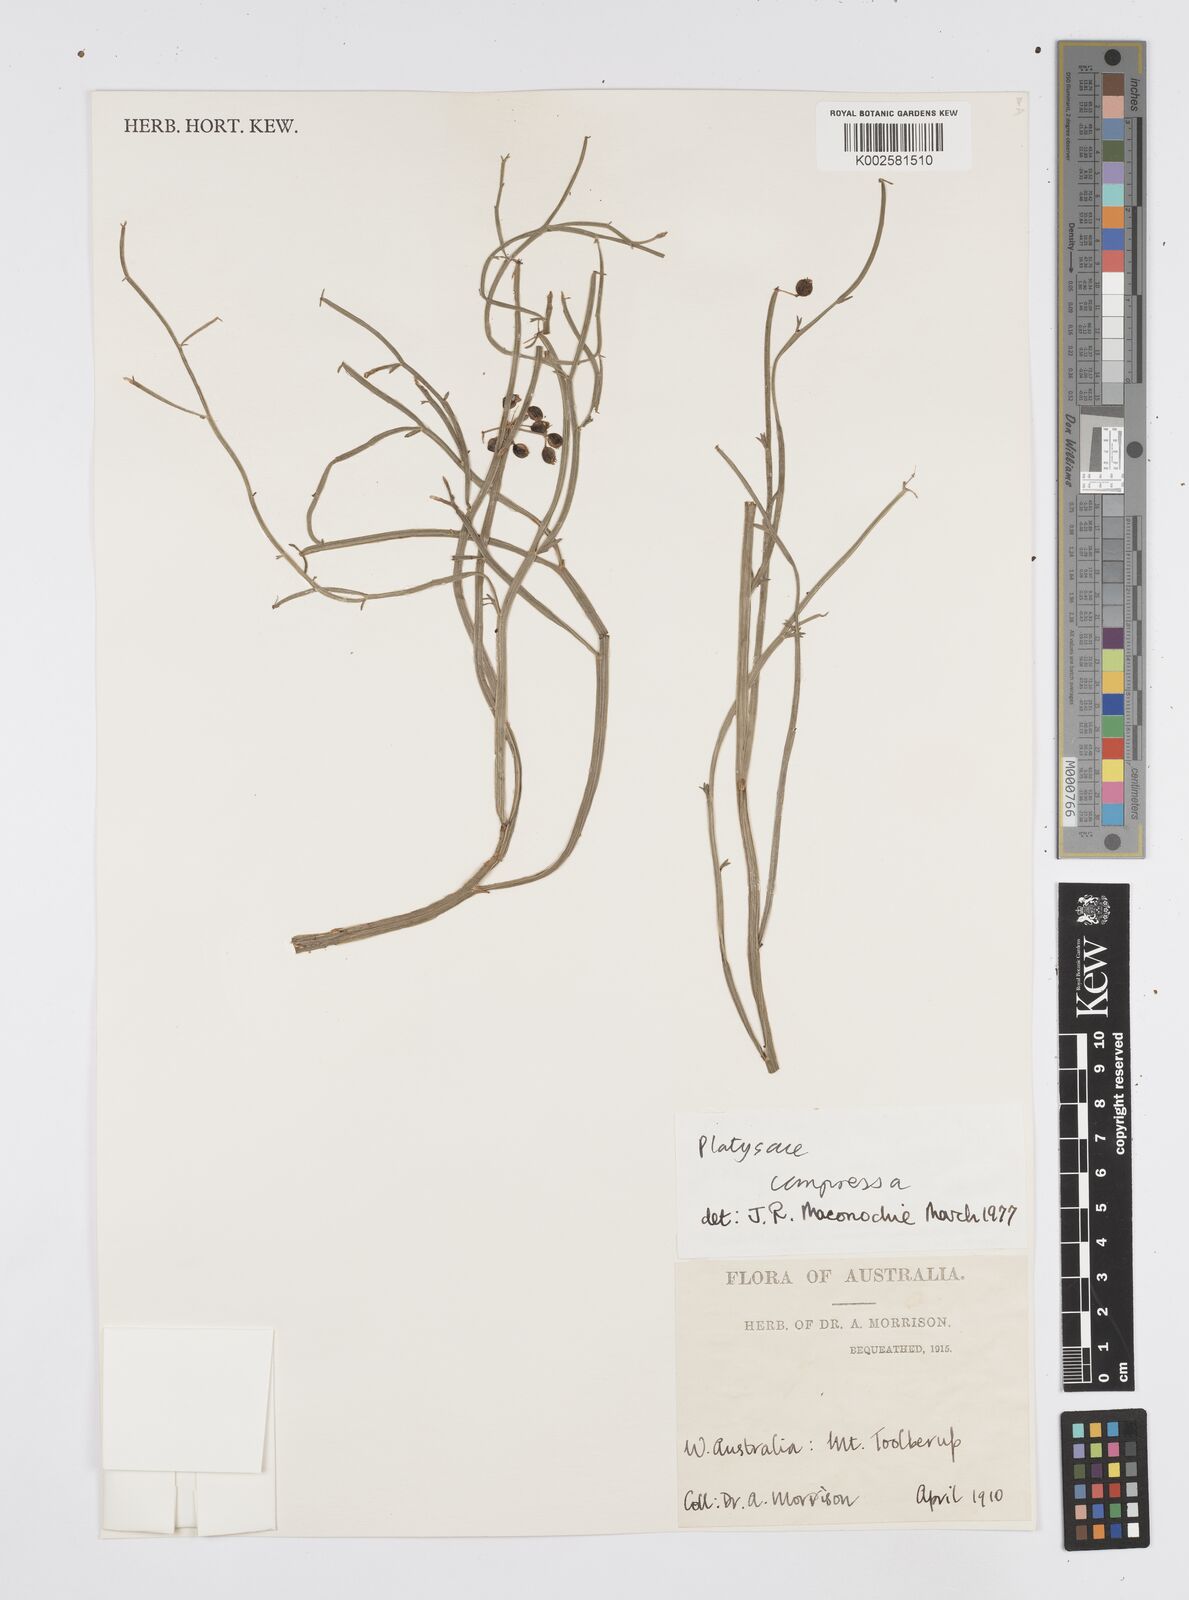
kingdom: Plantae
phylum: Tracheophyta
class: Magnoliopsida
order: Apiales
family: Apiaceae
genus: Centella
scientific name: Centella
